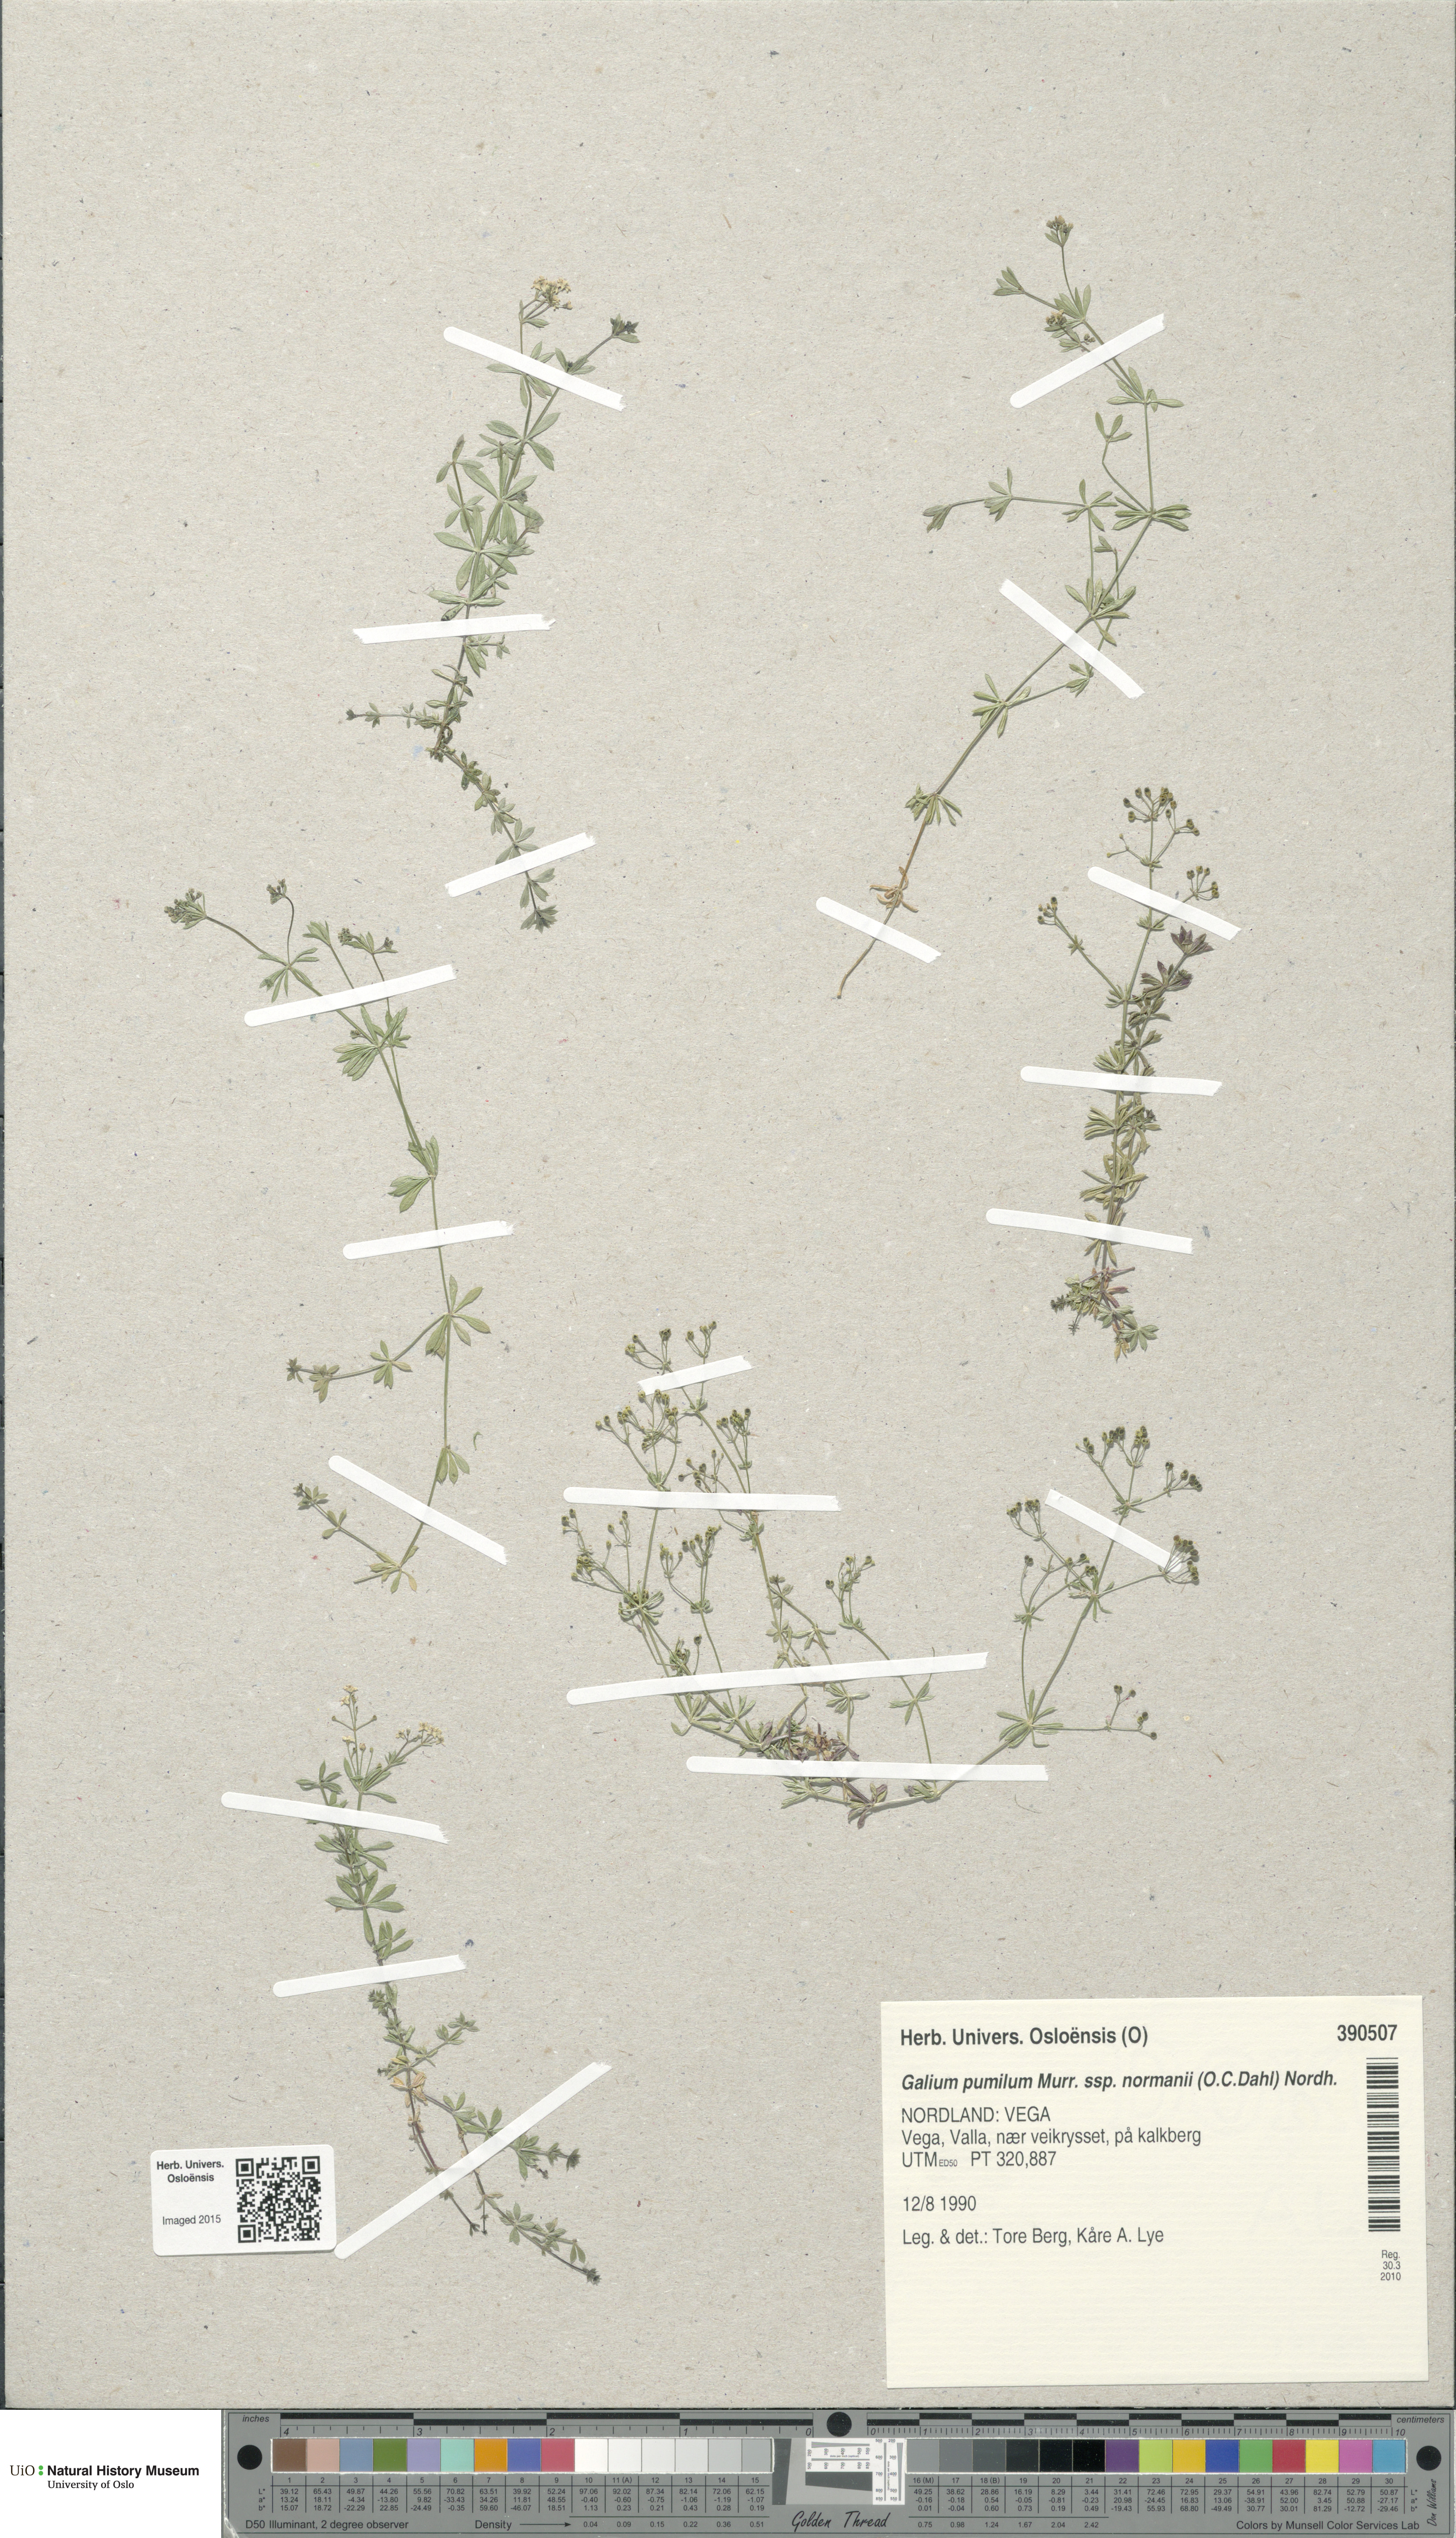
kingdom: Plantae
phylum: Tracheophyta
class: Magnoliopsida
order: Gentianales
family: Rubiaceae
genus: Galium
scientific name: Galium normanii
